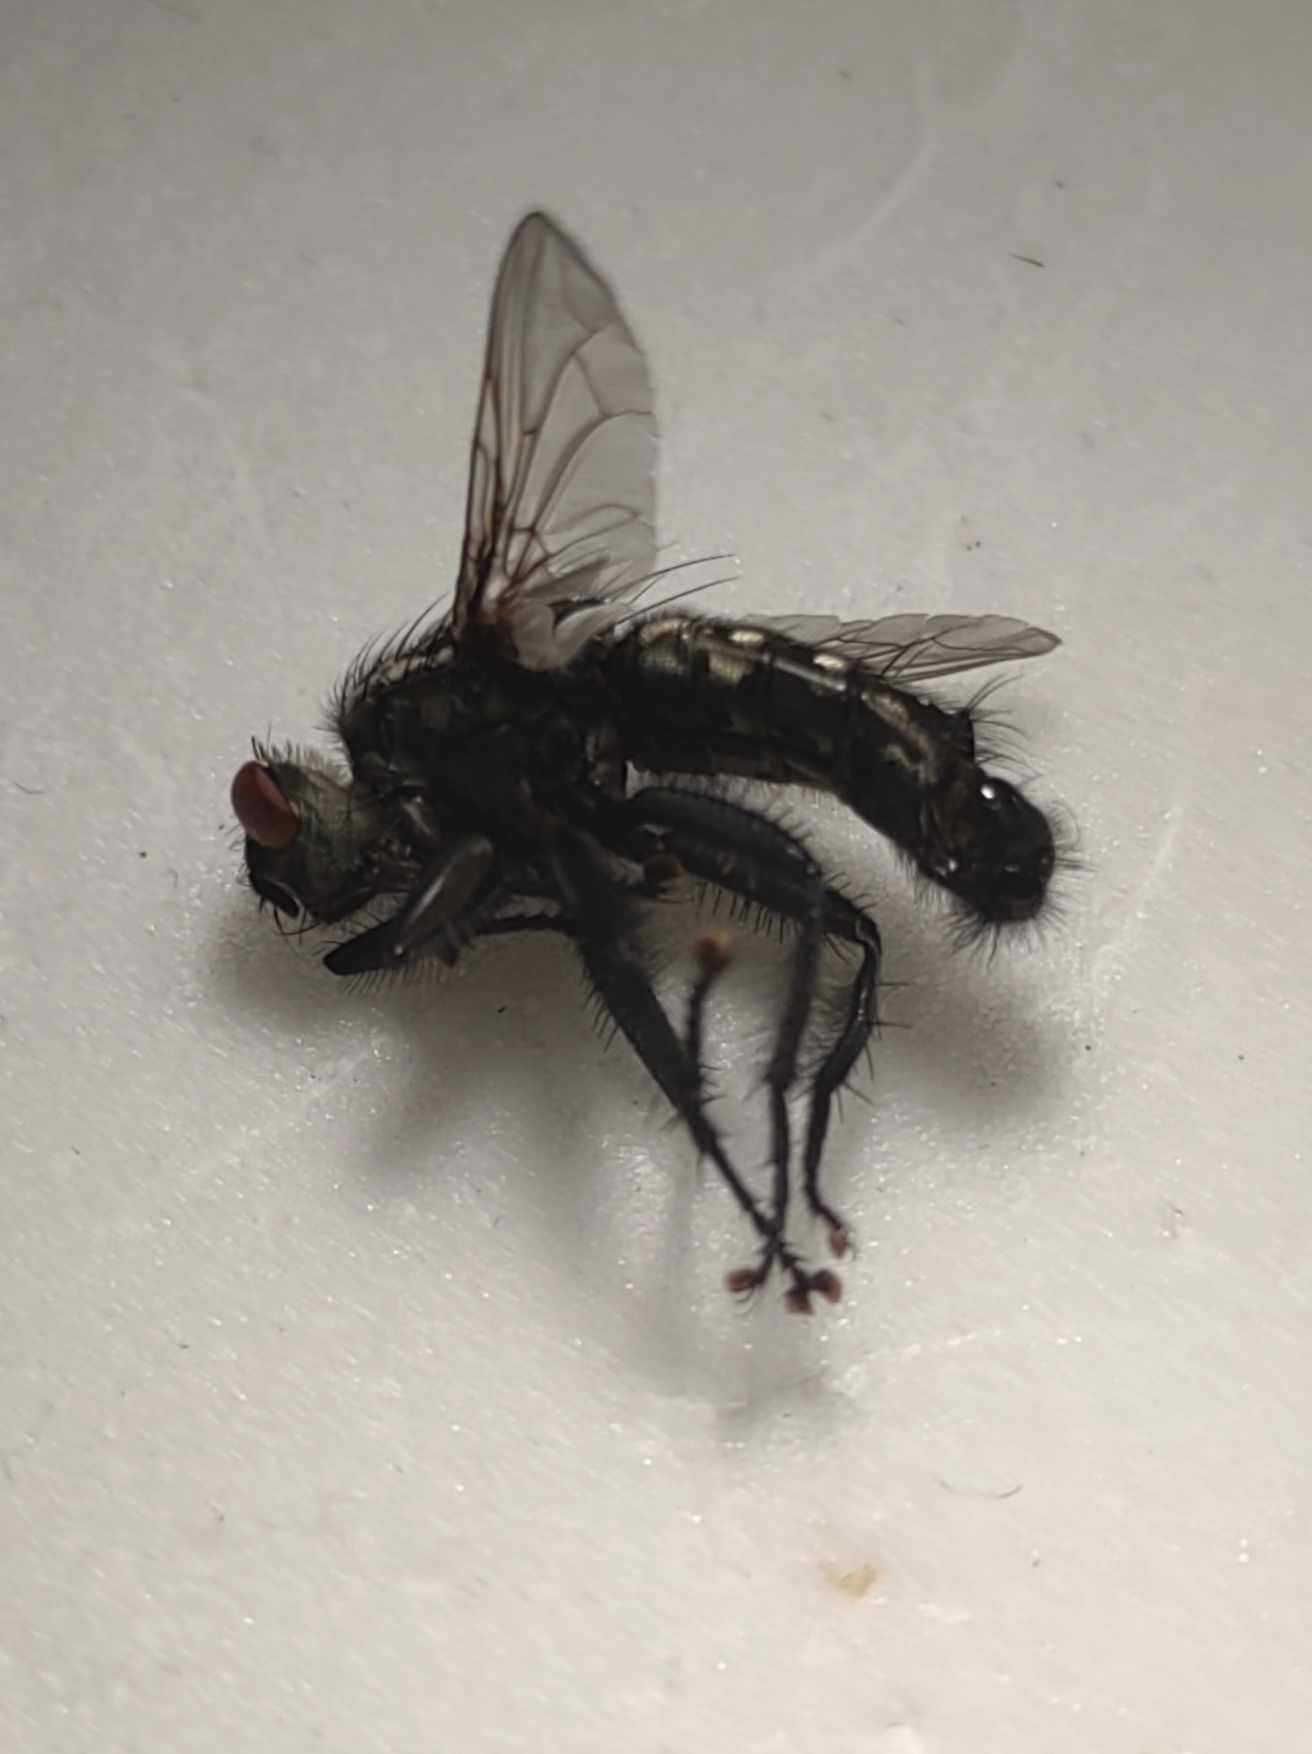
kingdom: Animalia
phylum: Arthropoda
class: Insecta
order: Diptera
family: Sarcophagidae
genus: Sarcophaga
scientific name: Sarcophaga variegata
